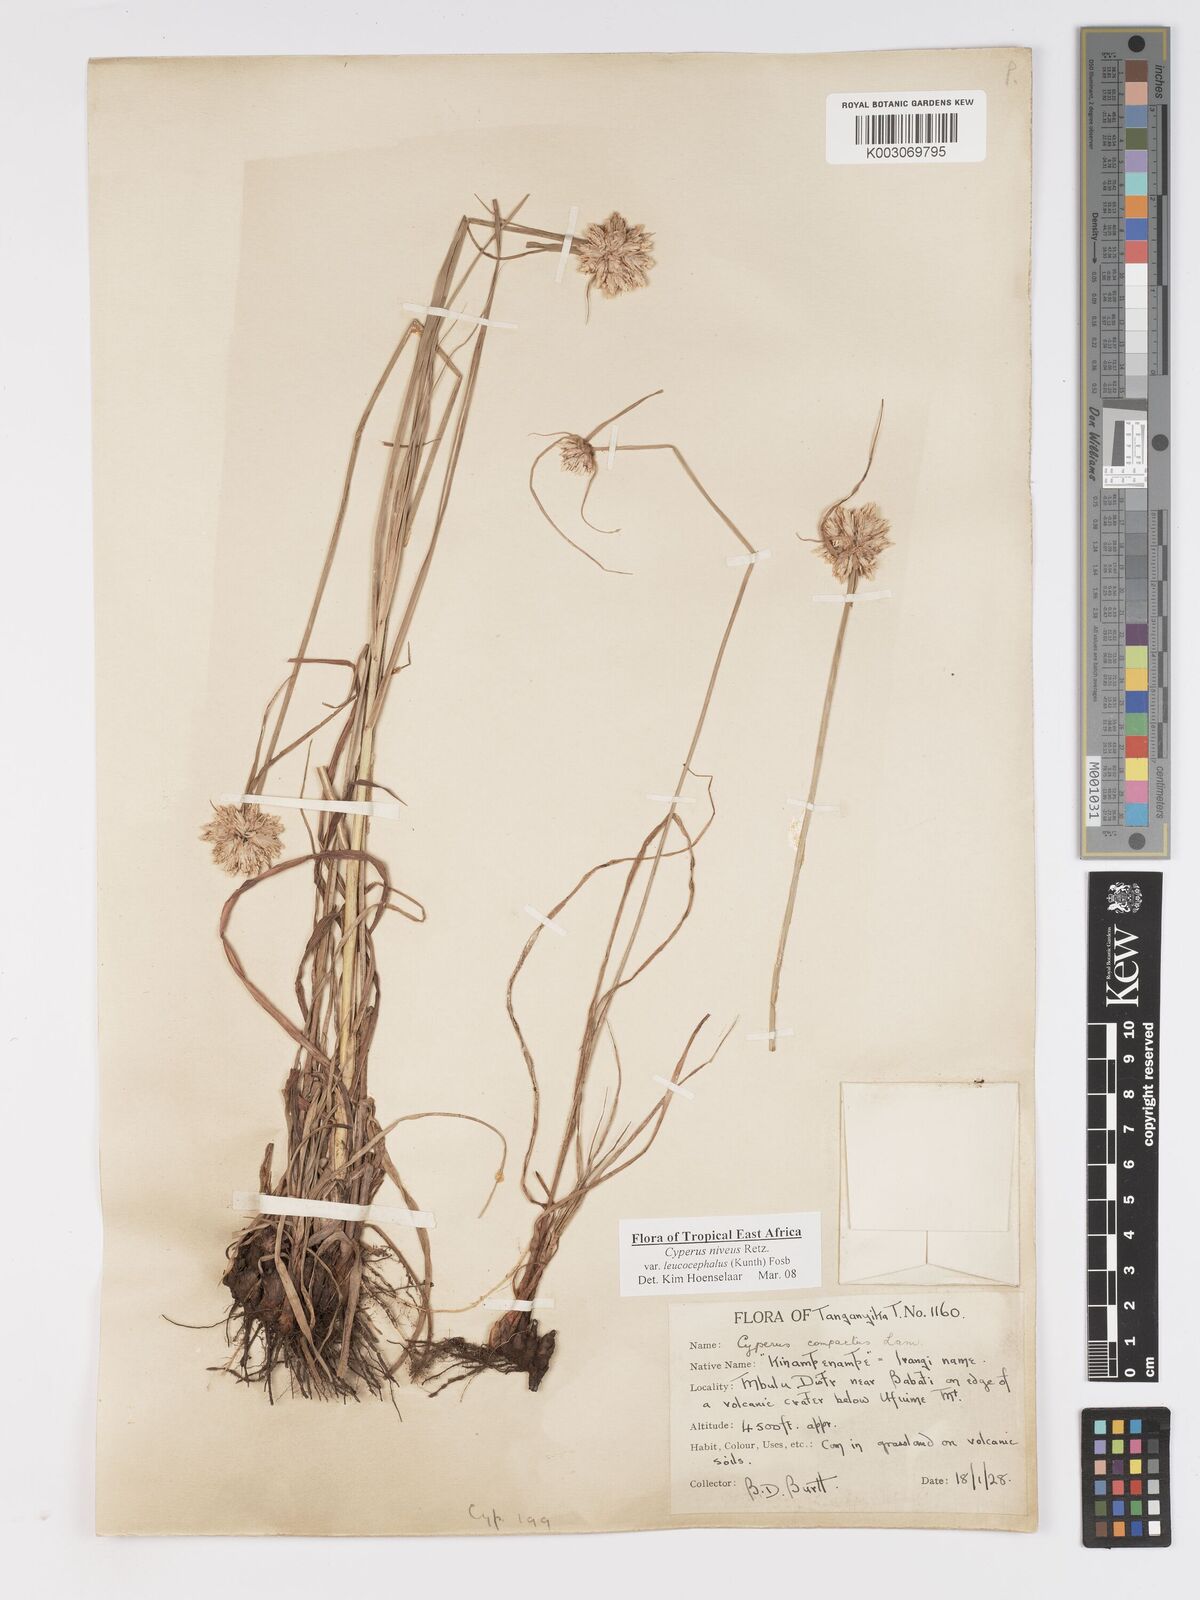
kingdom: Plantae
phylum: Tracheophyta
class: Liliopsida
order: Poales
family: Cyperaceae
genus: Cyperus
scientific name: Cyperus niveus
